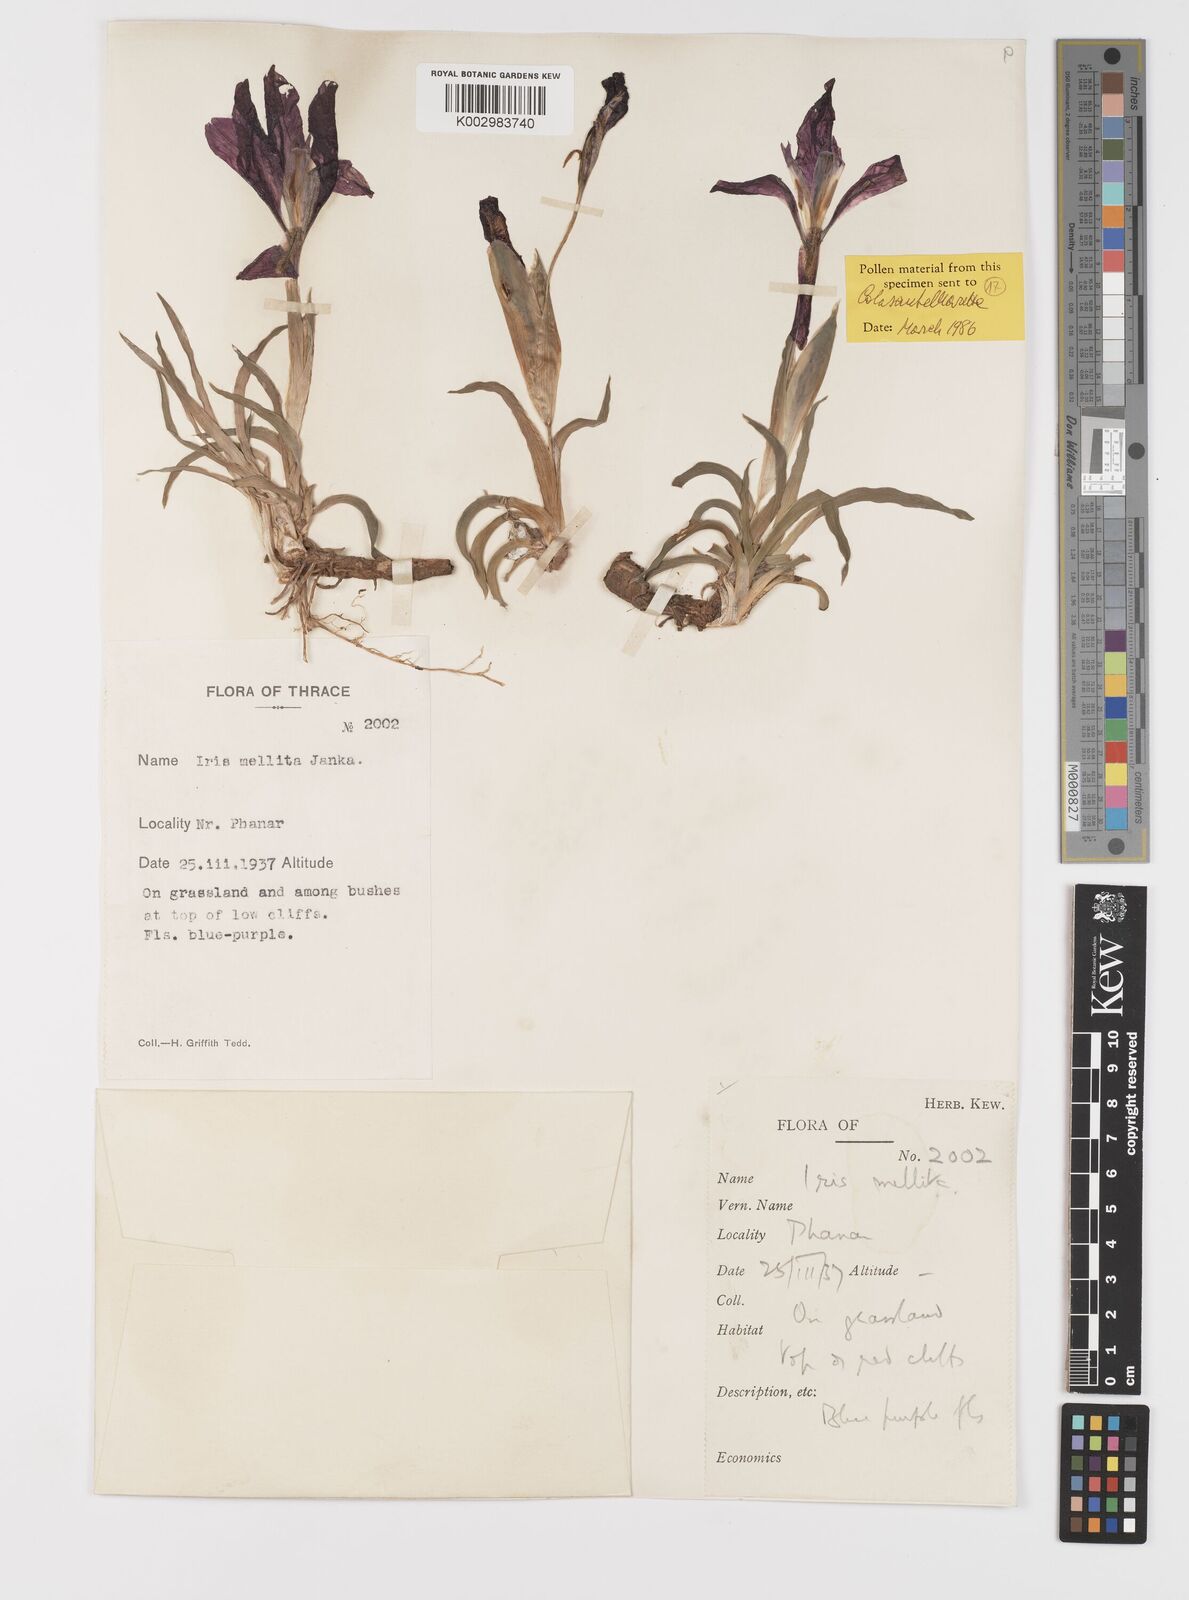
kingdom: Plantae
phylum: Tracheophyta
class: Liliopsida
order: Asparagales
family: Iridaceae
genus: Iris
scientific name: Iris suaveolens
